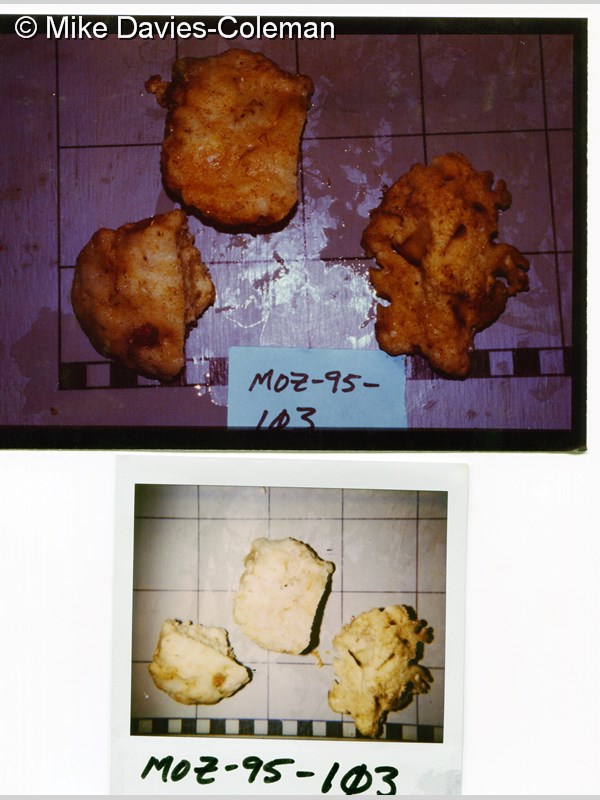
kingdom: Animalia
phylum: Porifera
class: Demospongiae
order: Haplosclerida
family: Chalinidae
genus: Haliclona
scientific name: Haliclona
